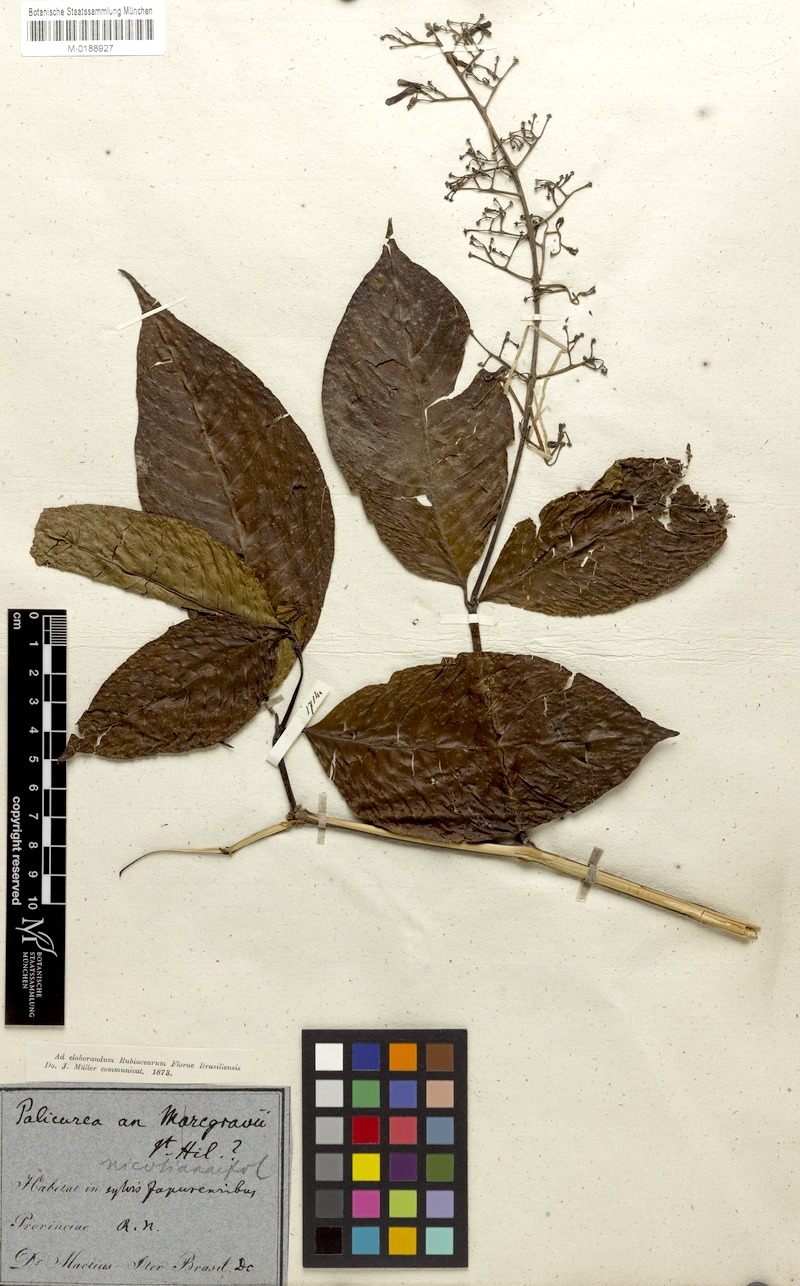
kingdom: Plantae
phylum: Tracheophyta
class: Magnoliopsida
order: Gentianales
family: Rubiaceae
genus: Palicourea
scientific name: Palicourea anisoloba
